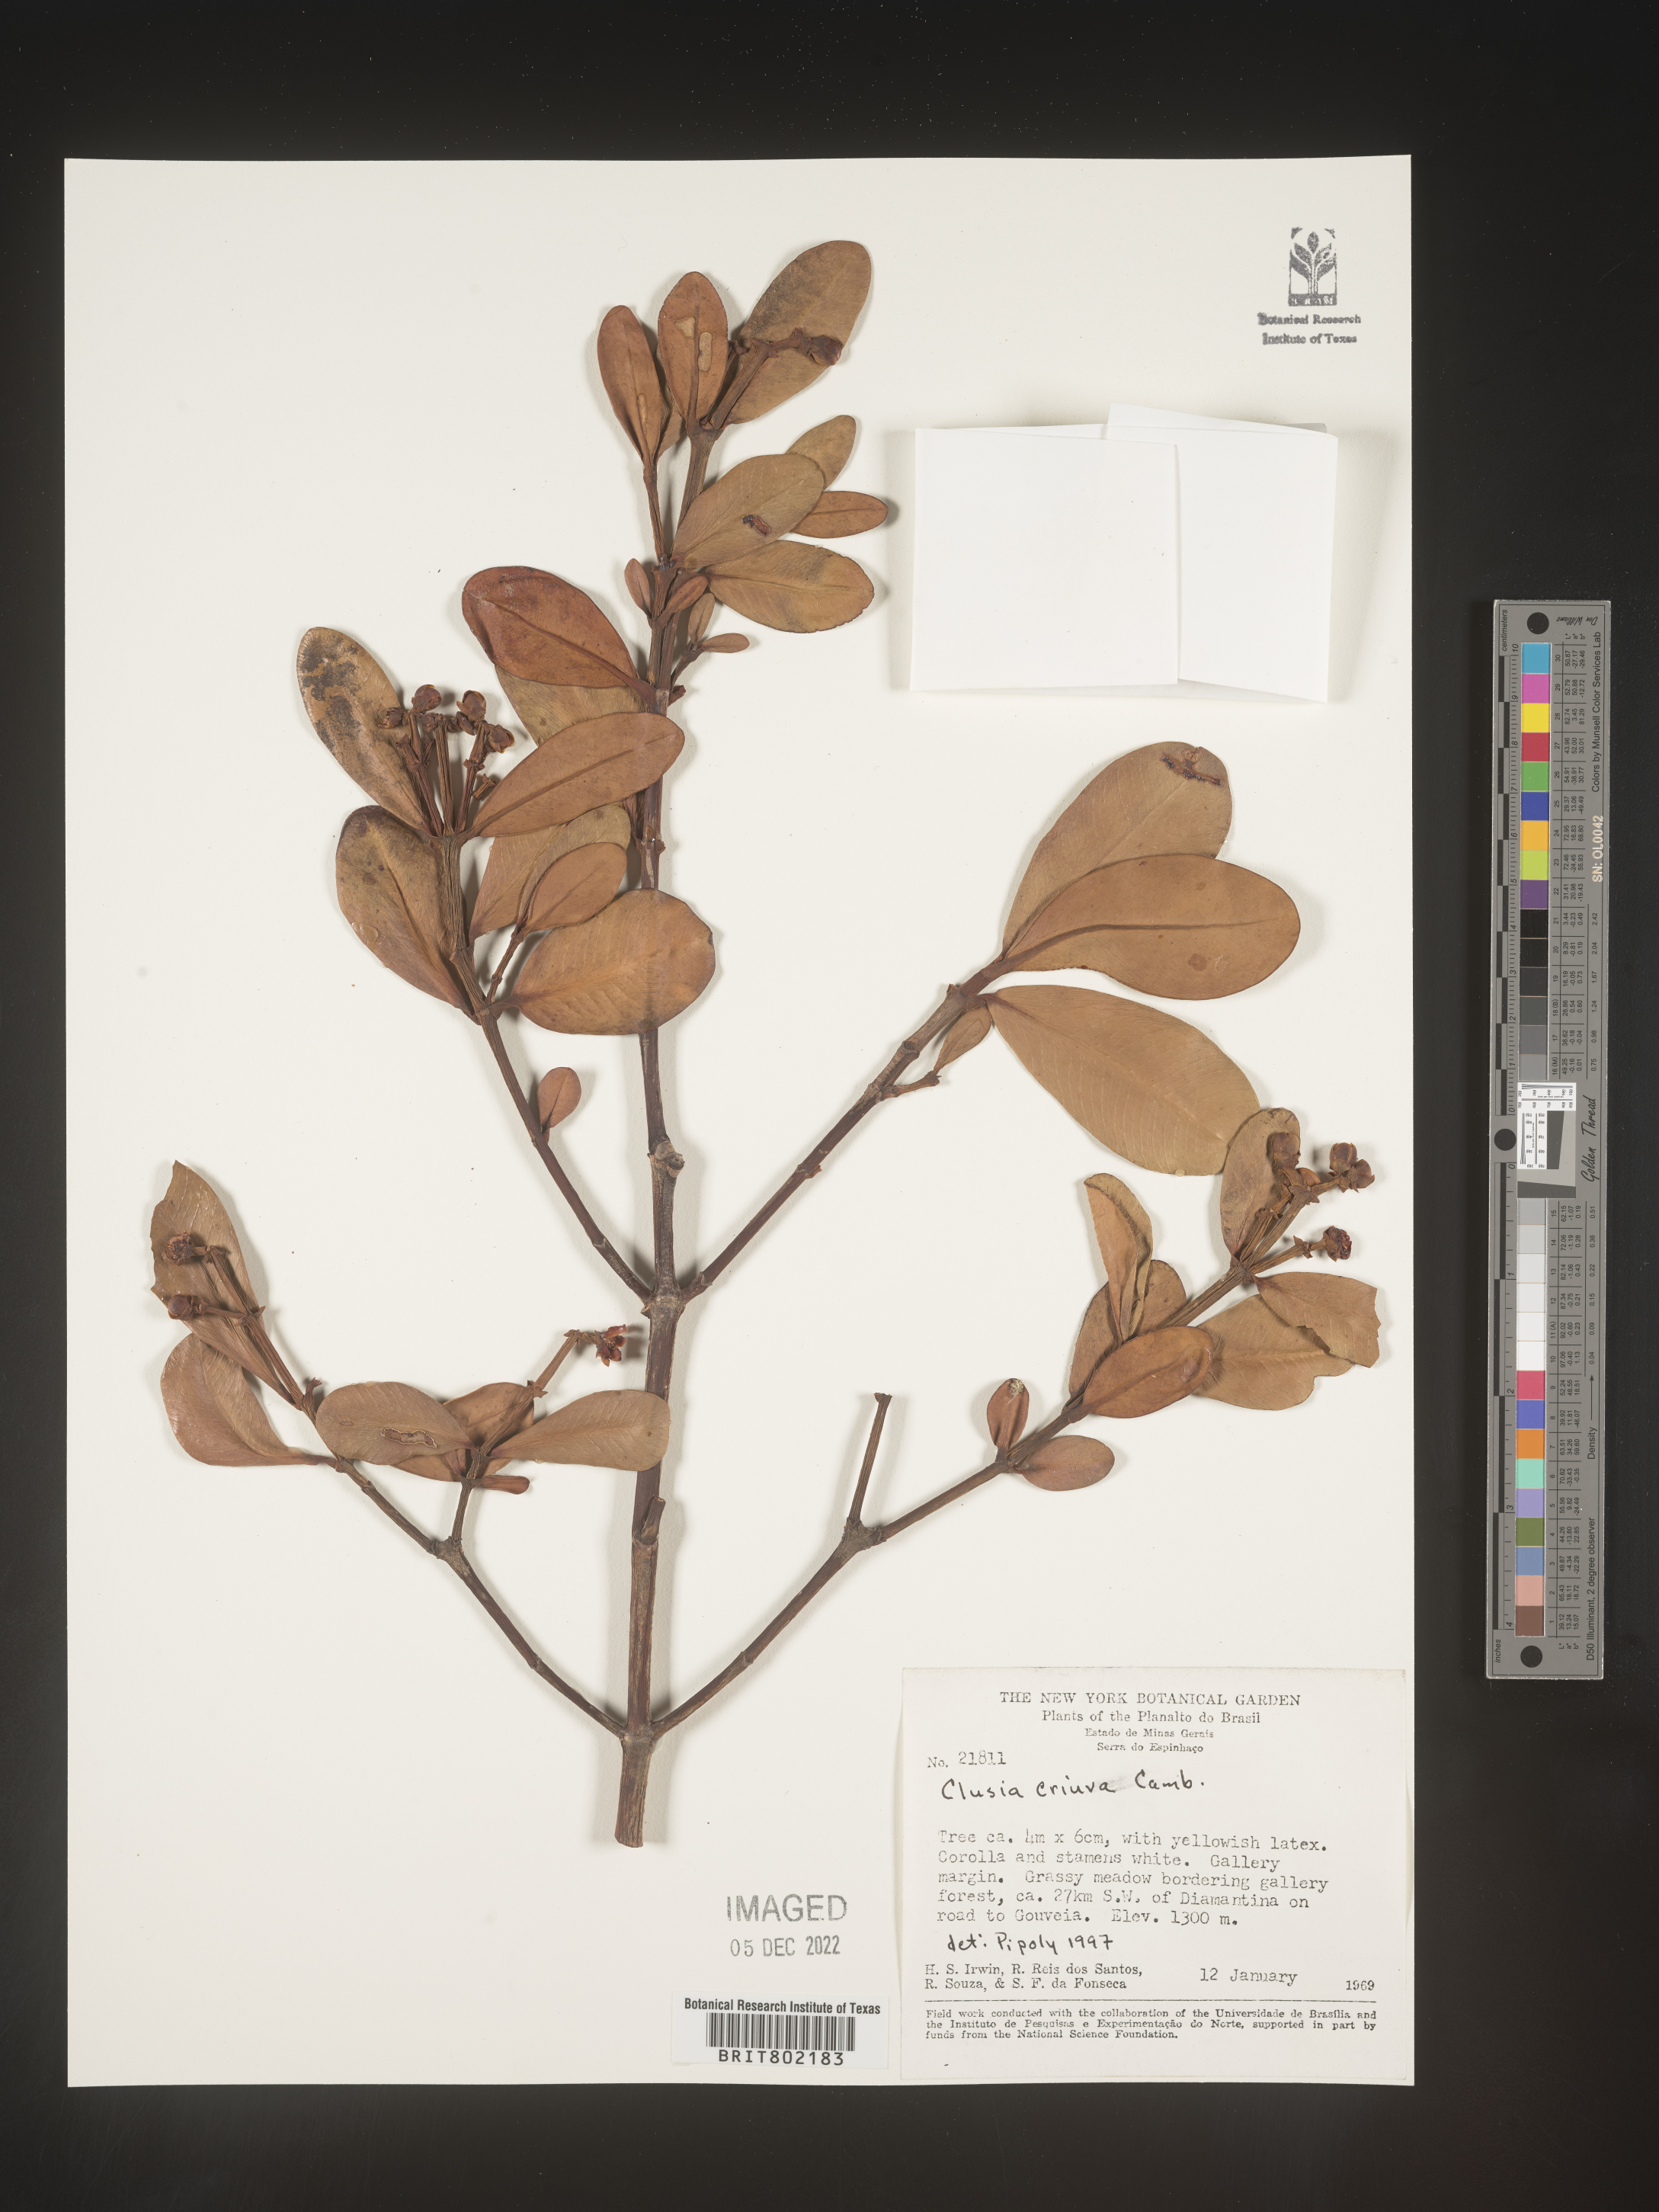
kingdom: Plantae
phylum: Tracheophyta
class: Magnoliopsida
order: Malpighiales
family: Clusiaceae
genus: Clusia
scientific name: Clusia
